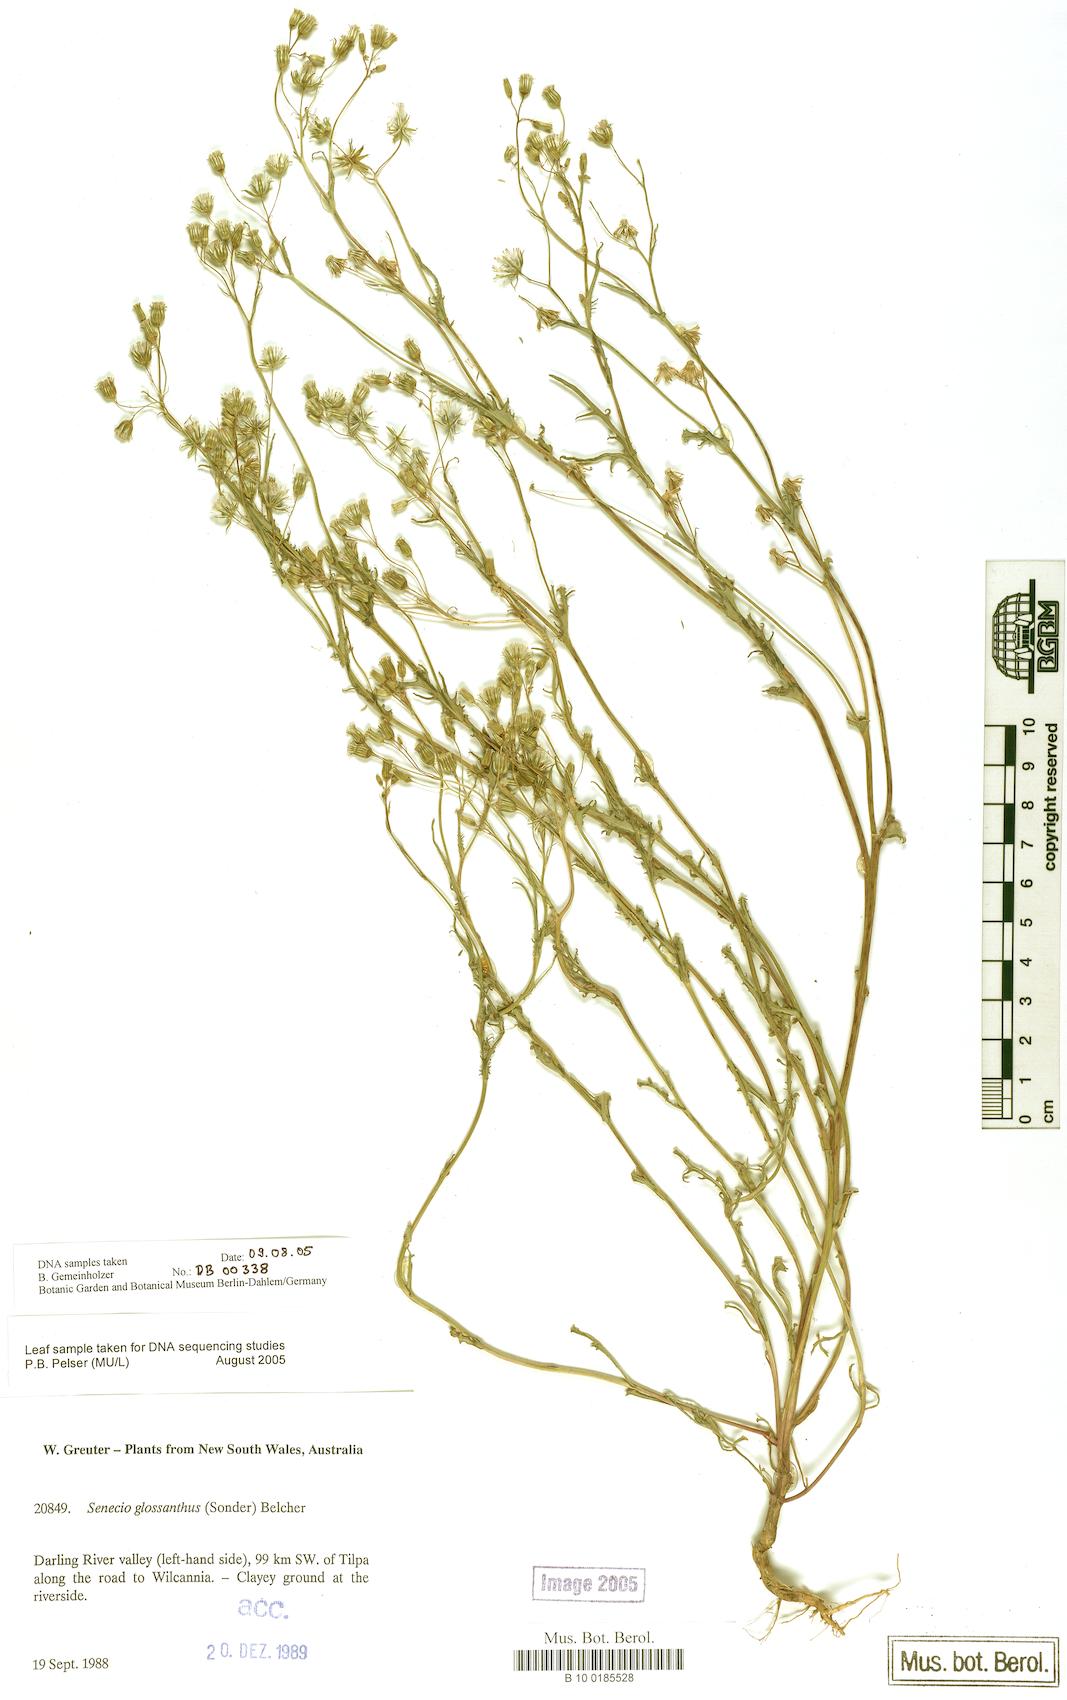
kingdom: Plantae
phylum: Tracheophyta
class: Magnoliopsida
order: Asterales
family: Asteraceae
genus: Senecio
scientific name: Senecio glossanthus
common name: Slender groundsel
